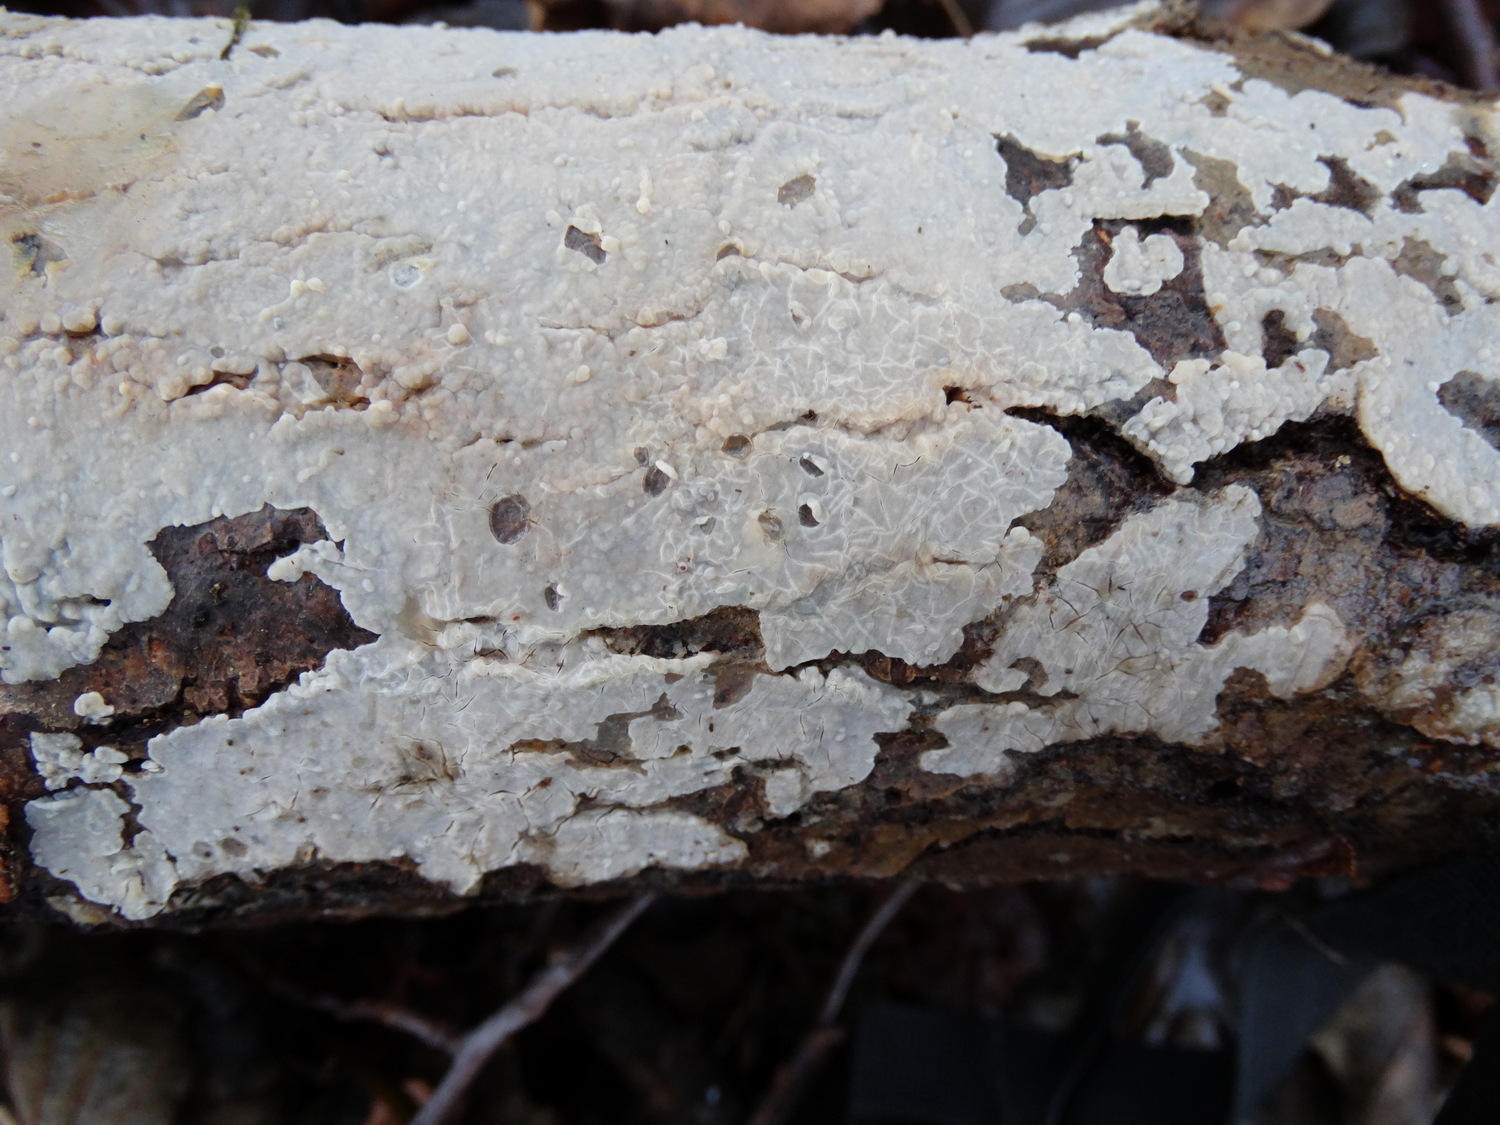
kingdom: Fungi
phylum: Basidiomycota
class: Agaricomycetes
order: Agaricales
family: Radulomycetaceae
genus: Radulomyces
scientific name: Radulomyces confluens
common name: glat naftalinskind
